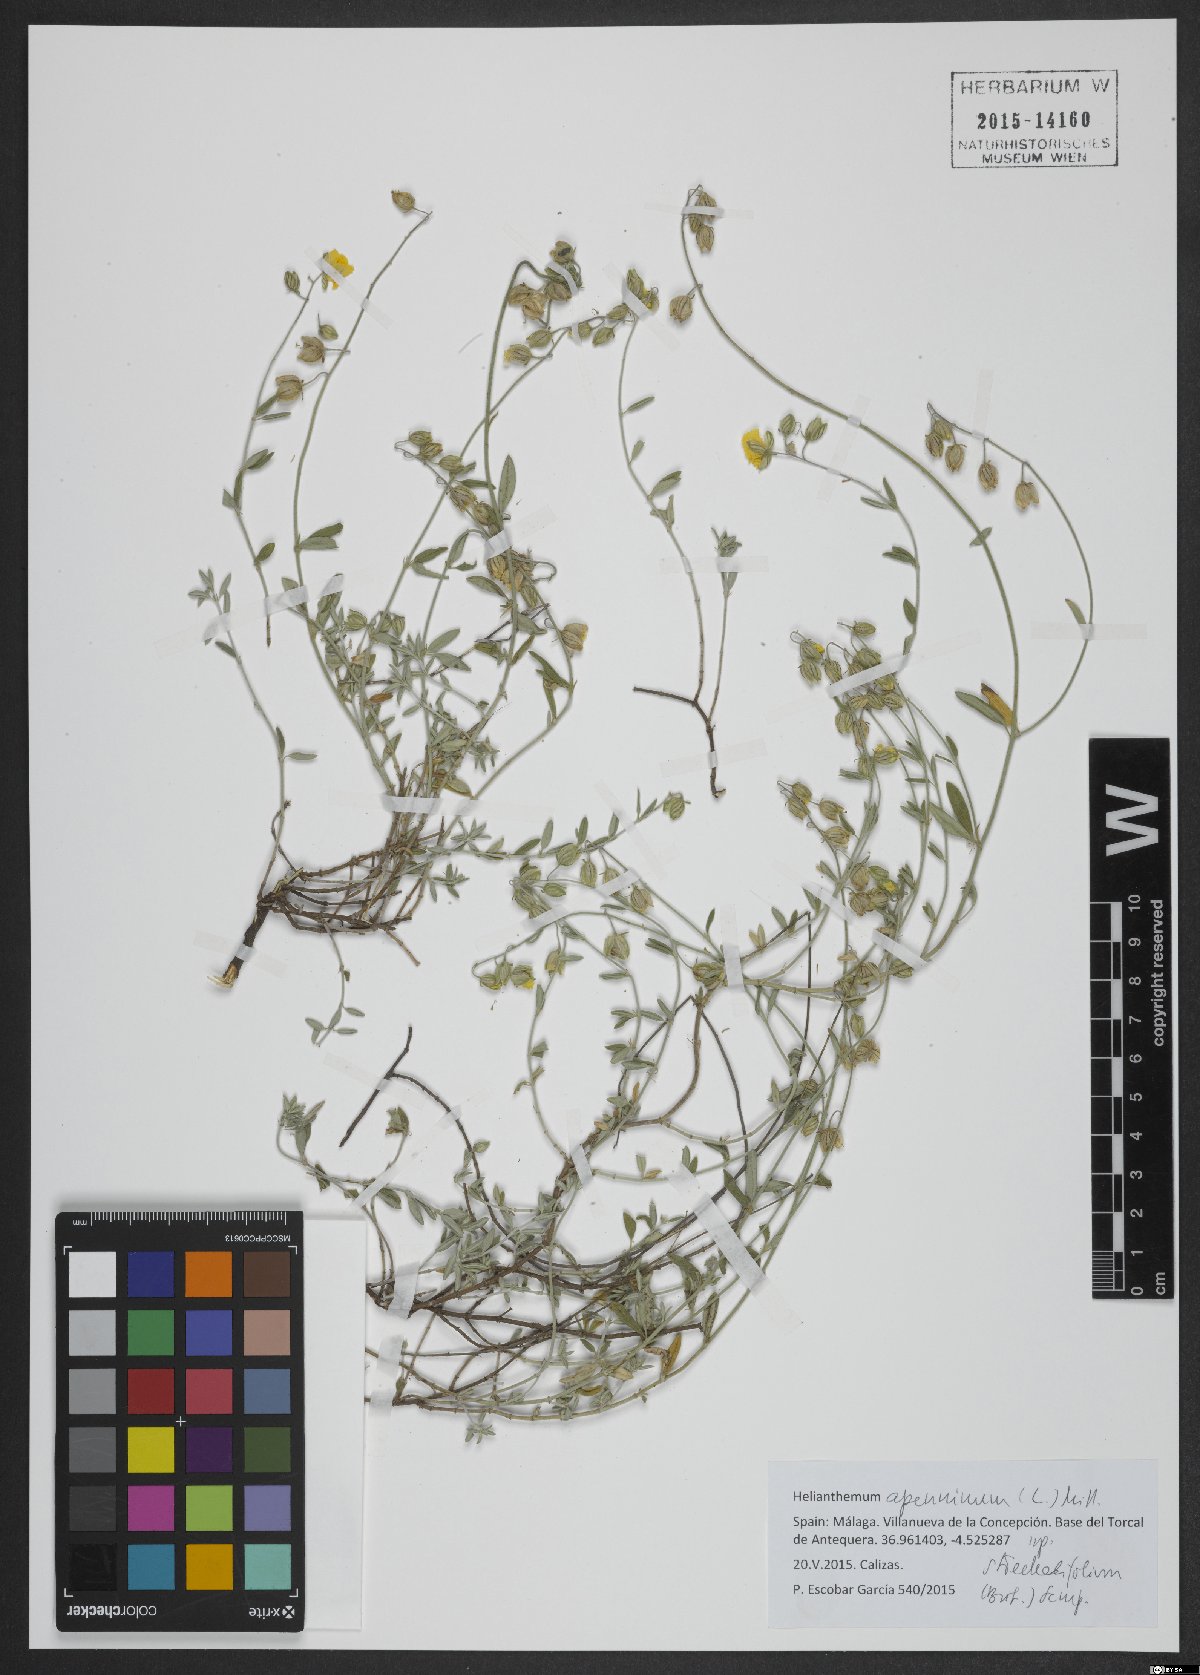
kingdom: Plantae
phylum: Tracheophyta
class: Magnoliopsida
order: Malvales
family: Cistaceae
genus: Helianthemum
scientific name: Helianthemum apenninum
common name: White rock-rose
